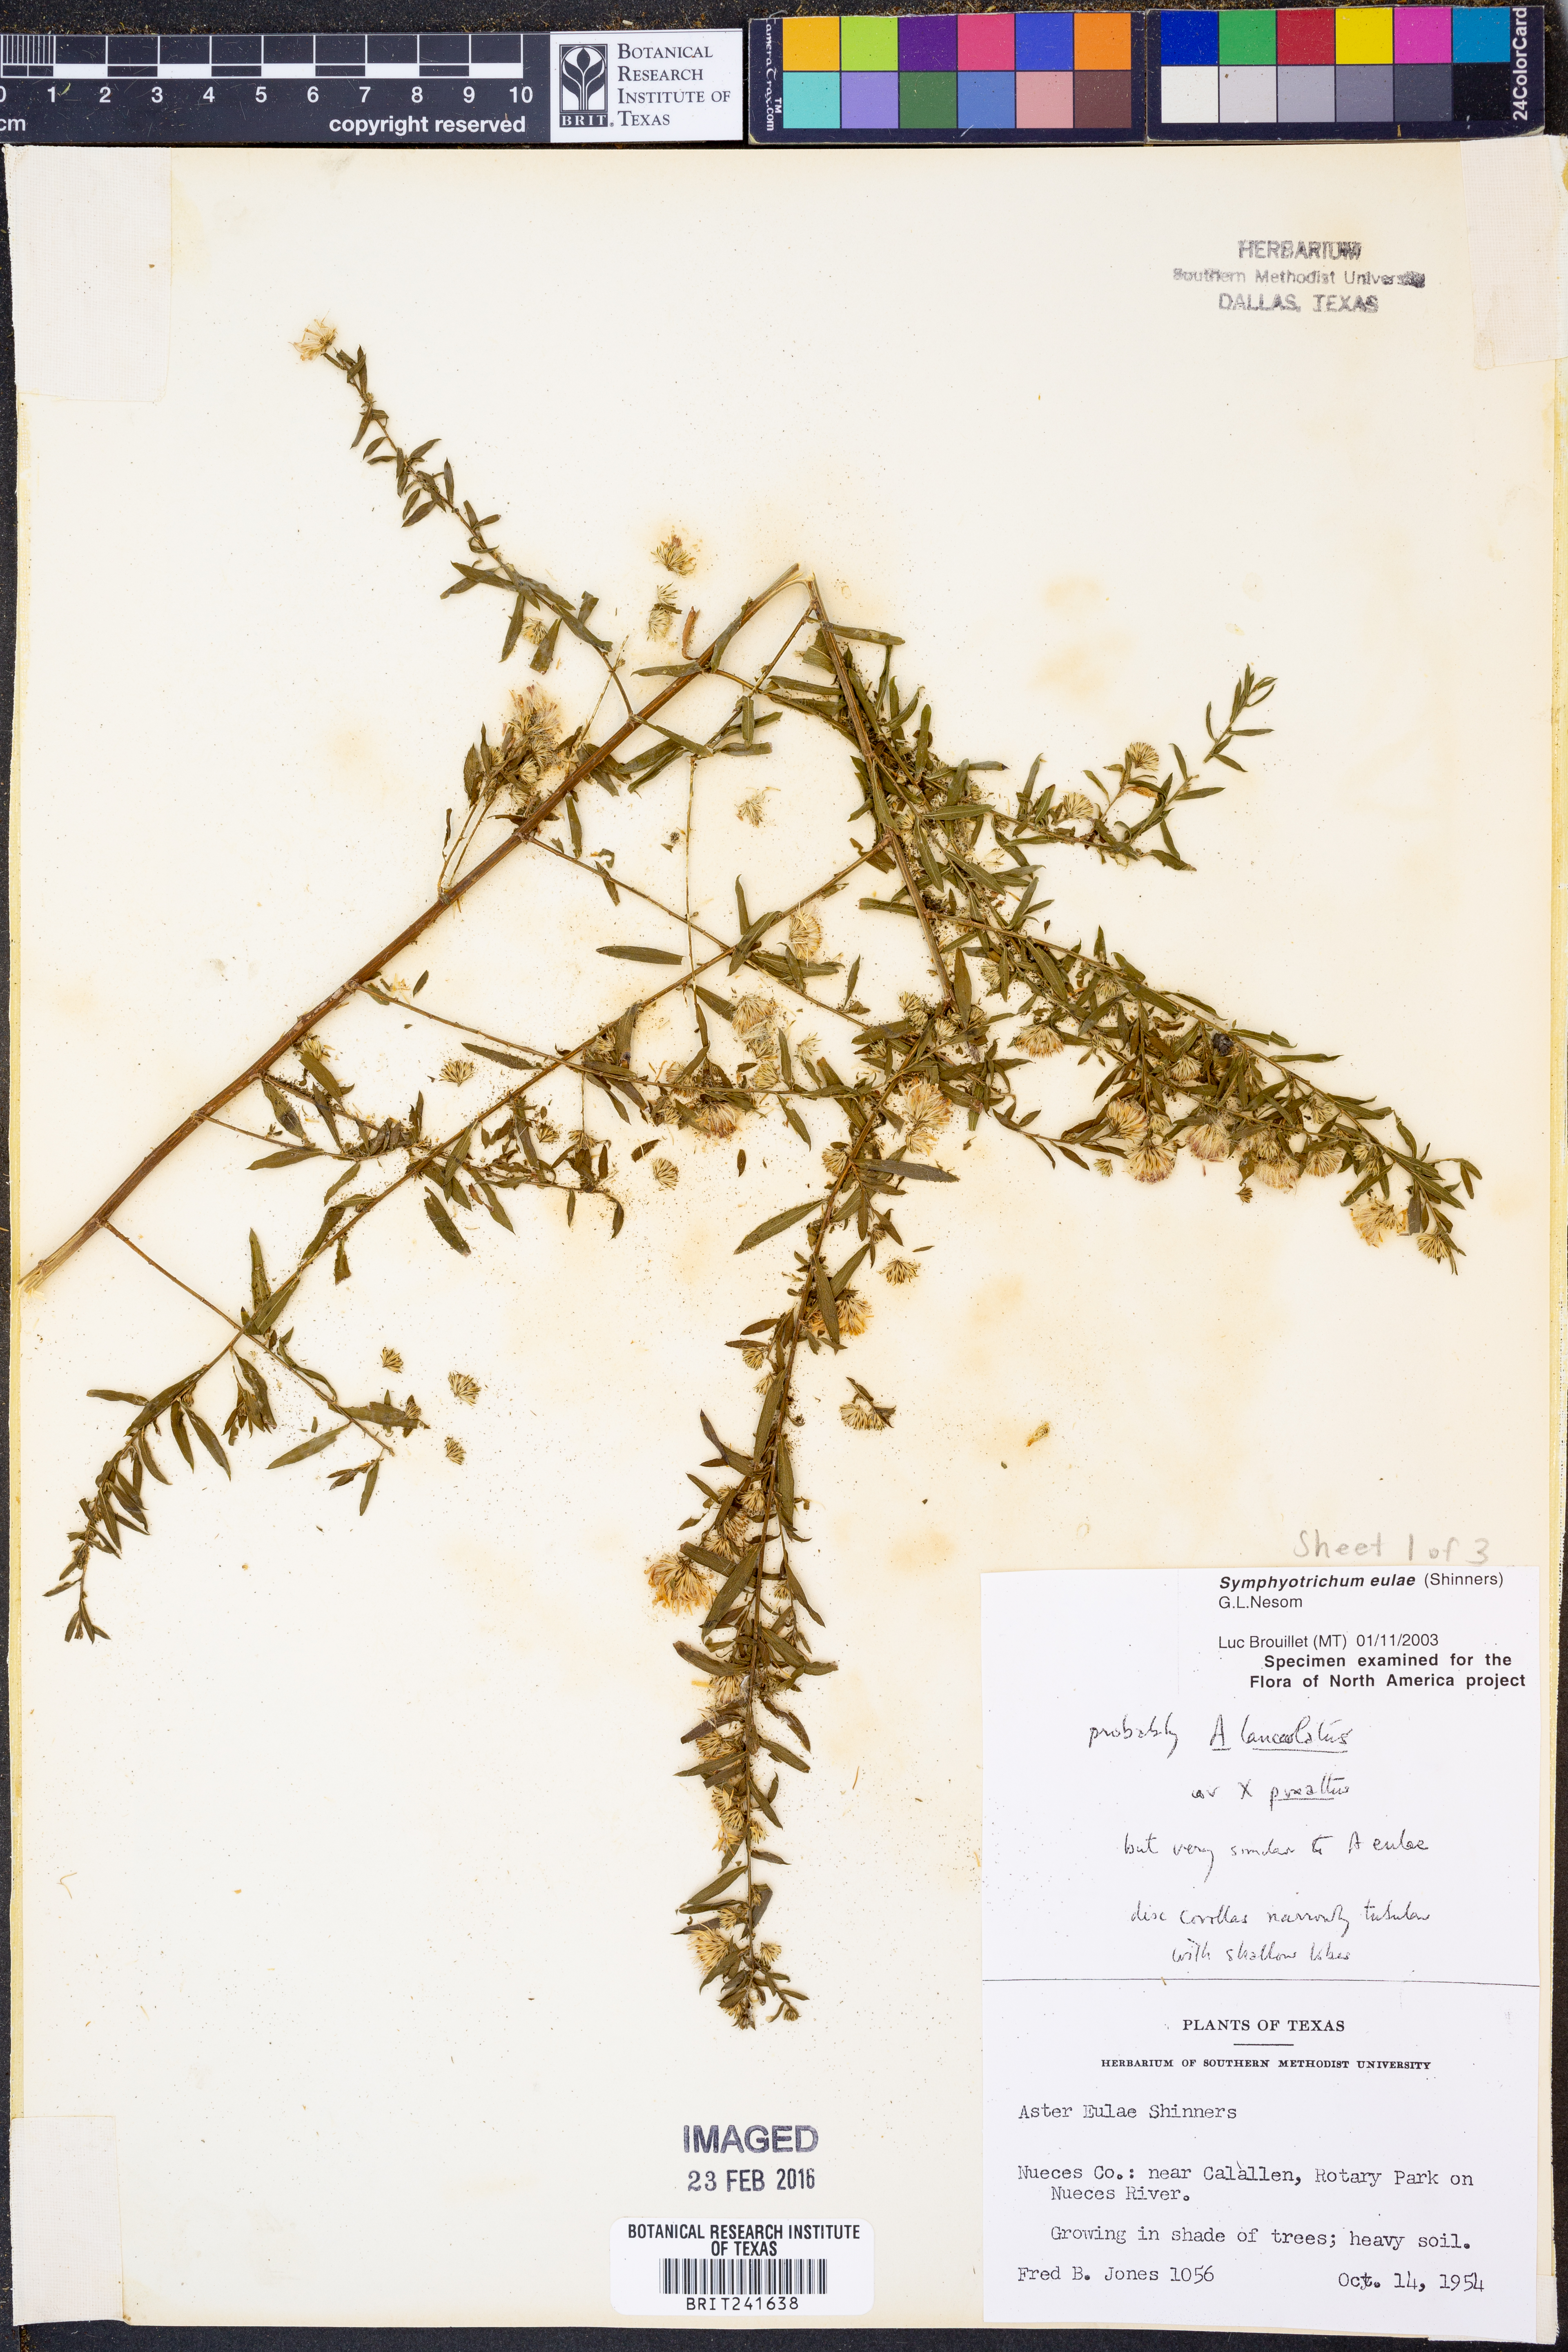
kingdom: Plantae
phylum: Tracheophyta
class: Magnoliopsida
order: Asterales
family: Asteraceae
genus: Symphyotrichum
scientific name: Symphyotrichum eulae
